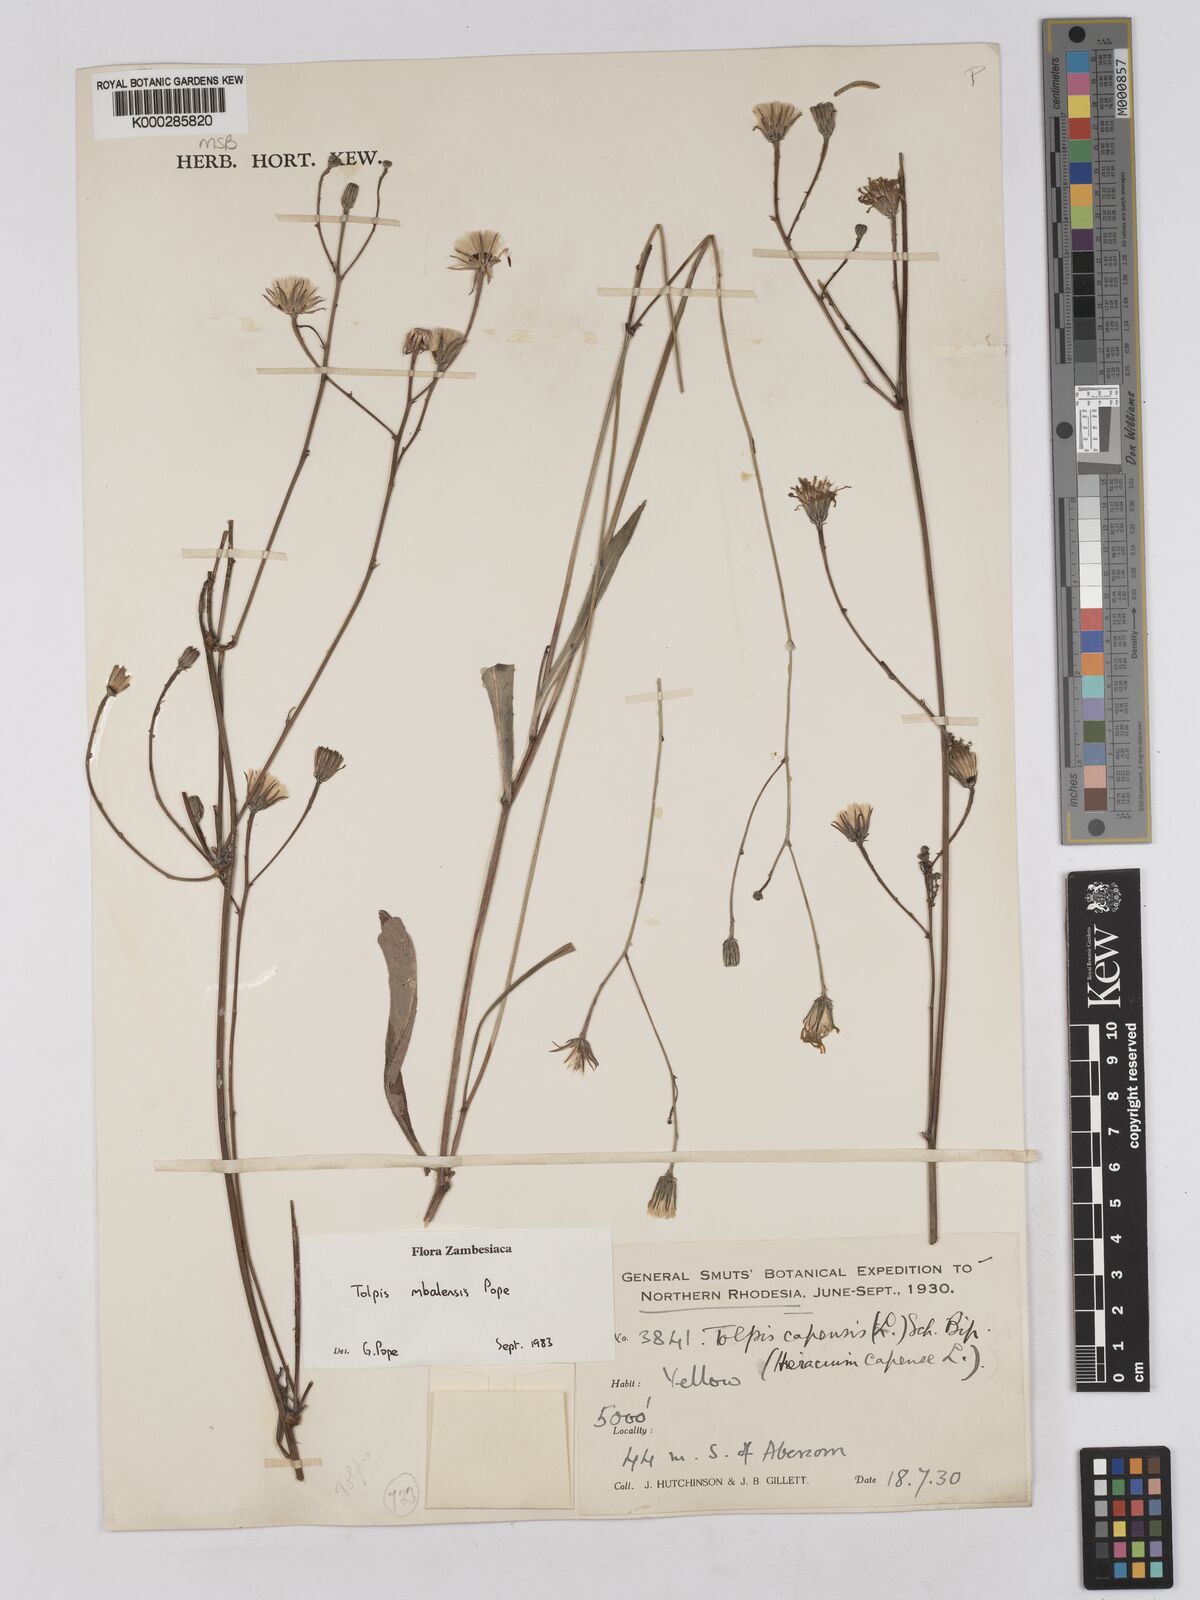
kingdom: Plantae
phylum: Tracheophyta
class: Magnoliopsida
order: Asterales
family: Asteraceae
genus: Tolpis
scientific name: Tolpis mbalensis
